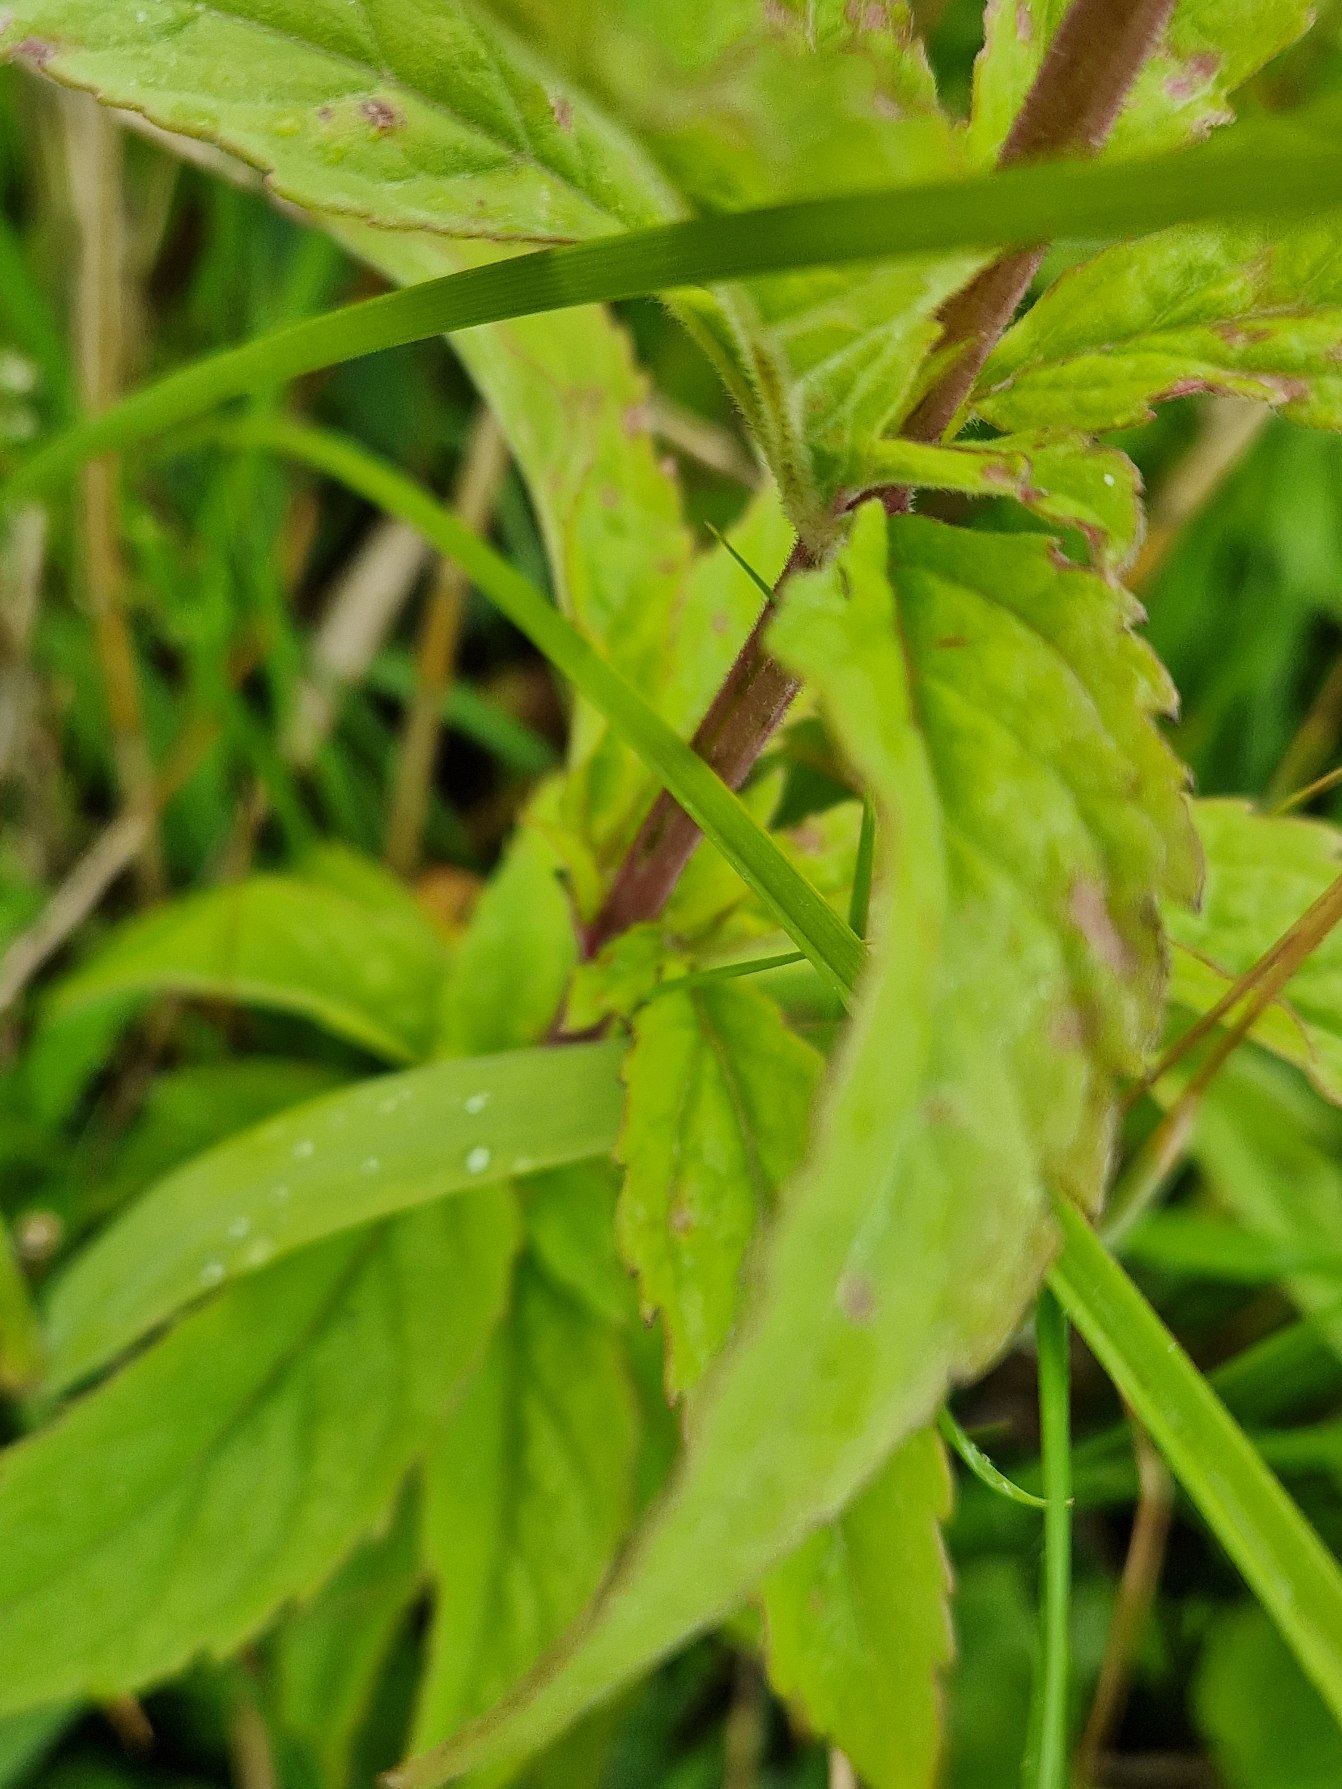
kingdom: Plantae
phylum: Tracheophyta
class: Magnoliopsida
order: Asterales
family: Asteraceae
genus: Eupatorium
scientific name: Eupatorium cannabinum
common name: Hjortetrøst
